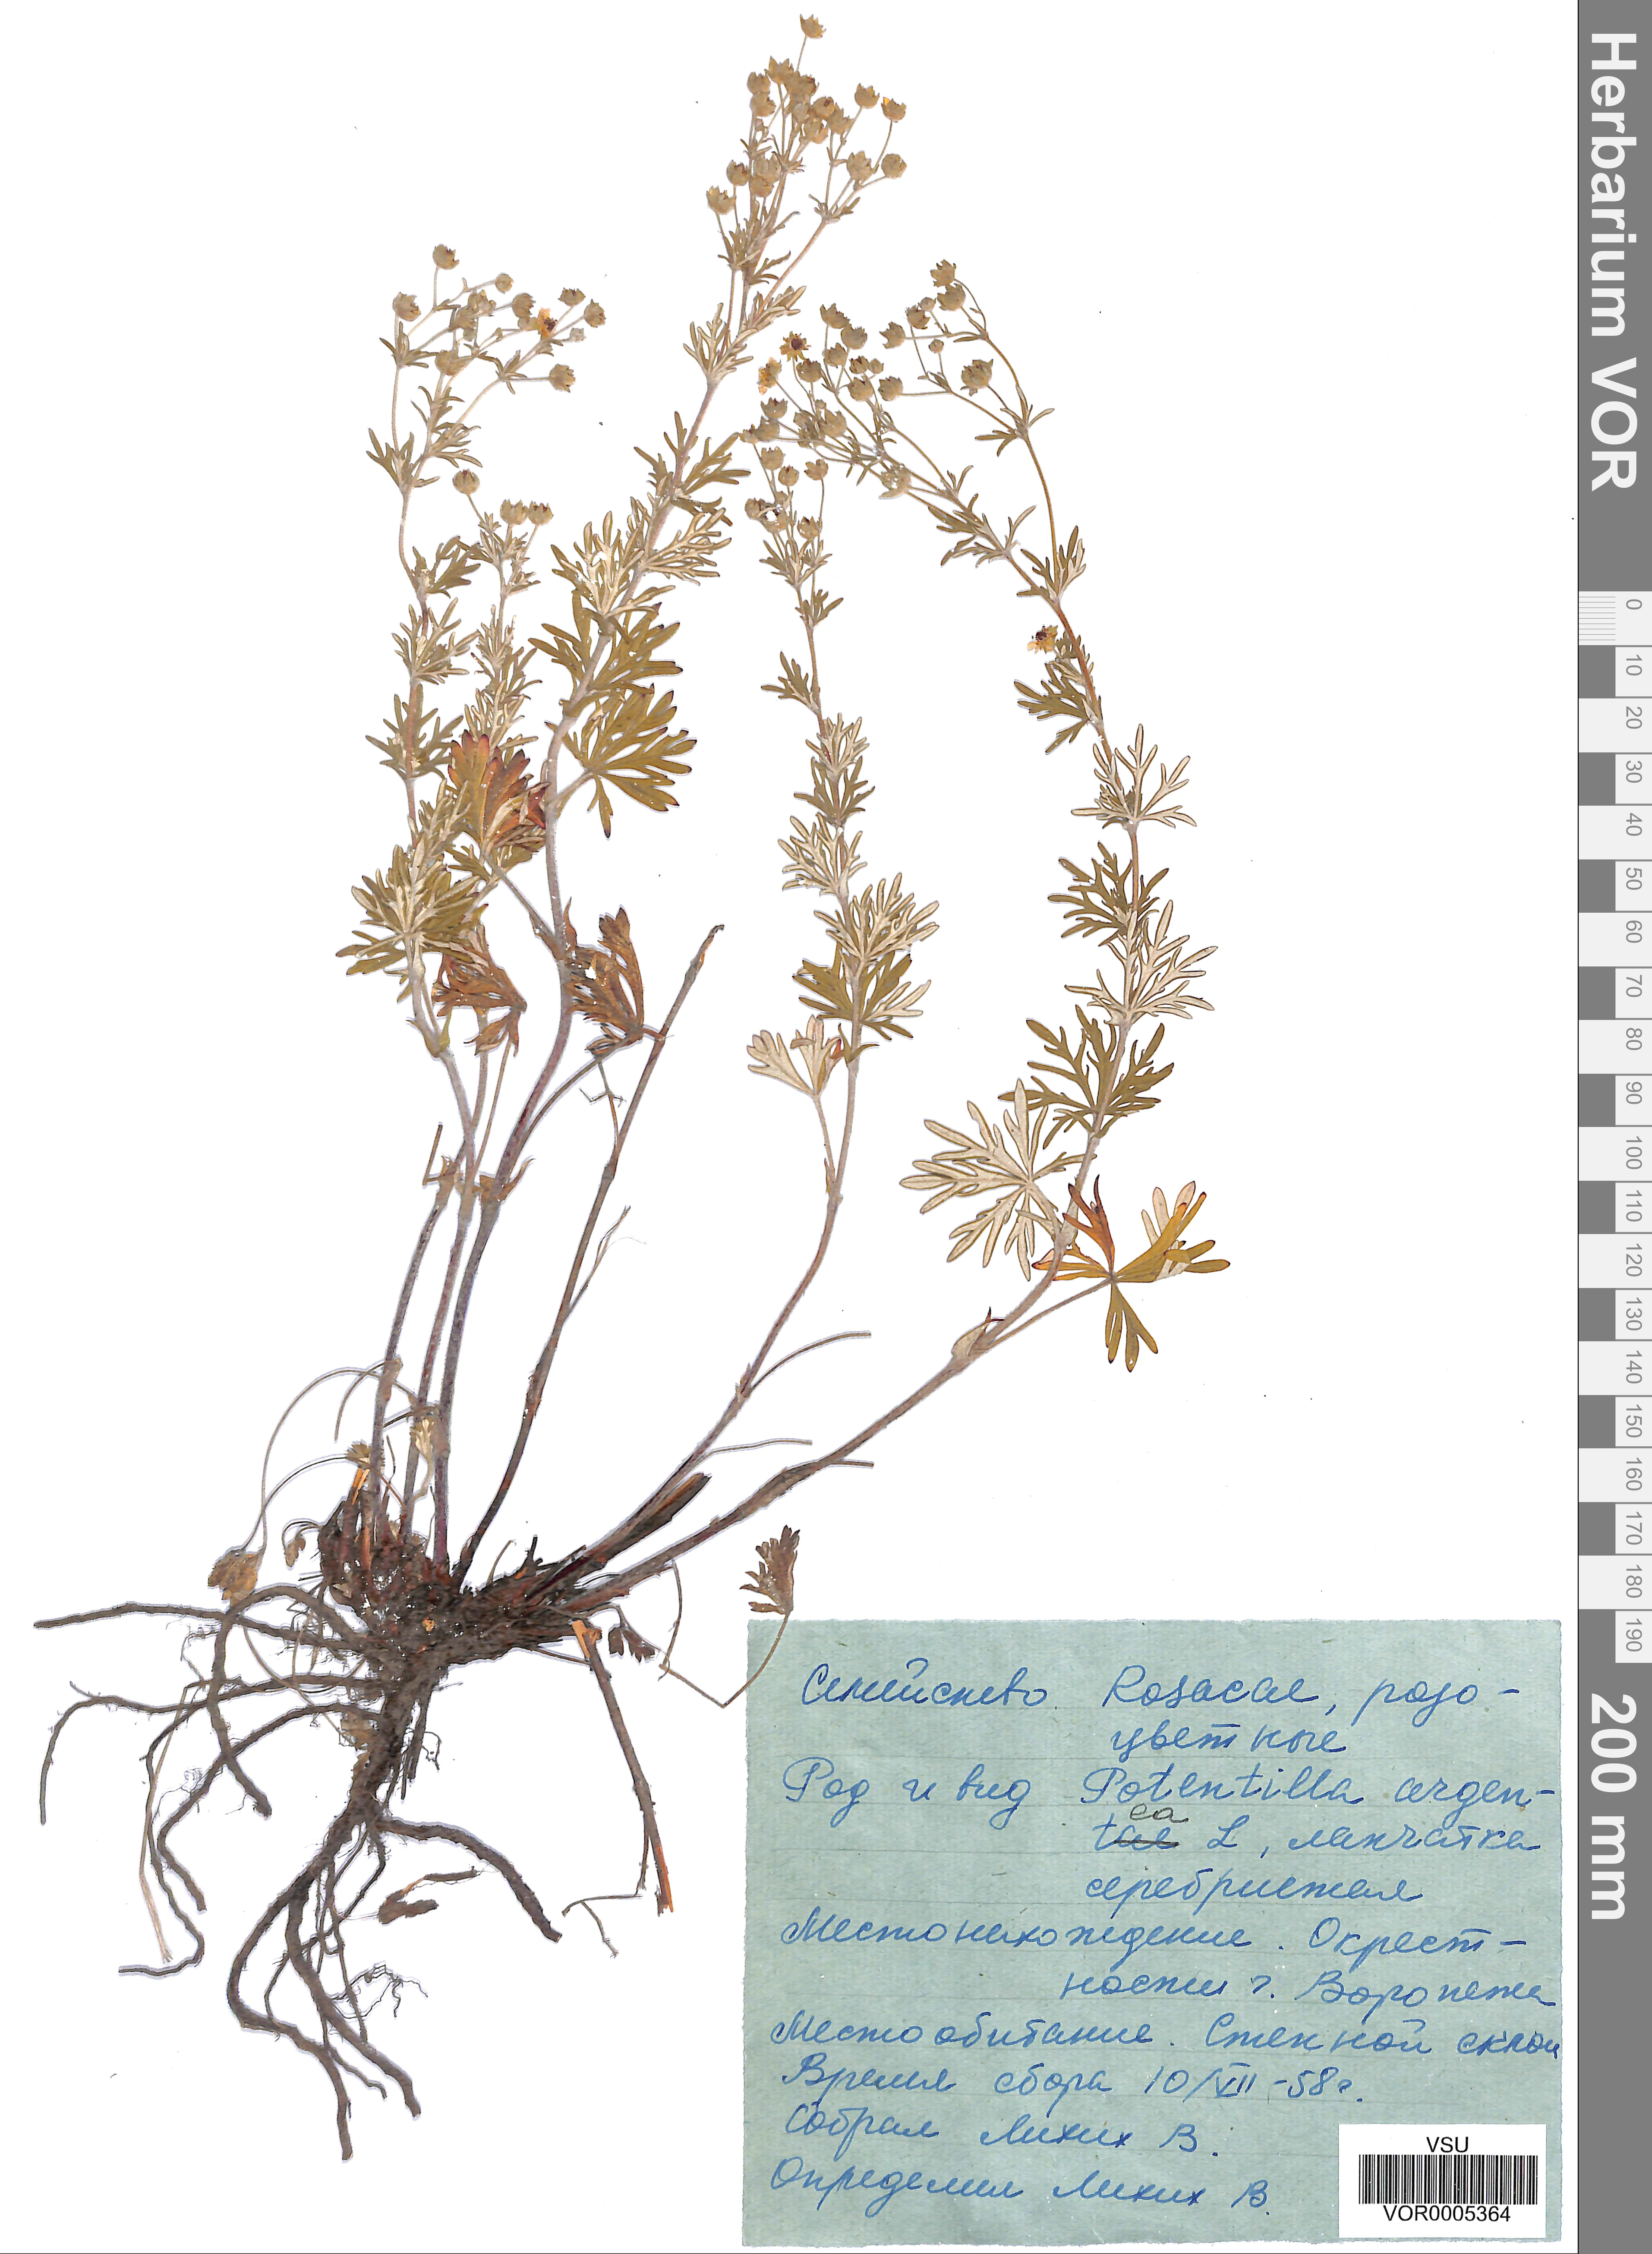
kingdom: Plantae
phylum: Tracheophyta
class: Magnoliopsida
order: Rosales
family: Rosaceae
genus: Potentilla
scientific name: Potentilla argentea
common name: Hoary cinquefoil
